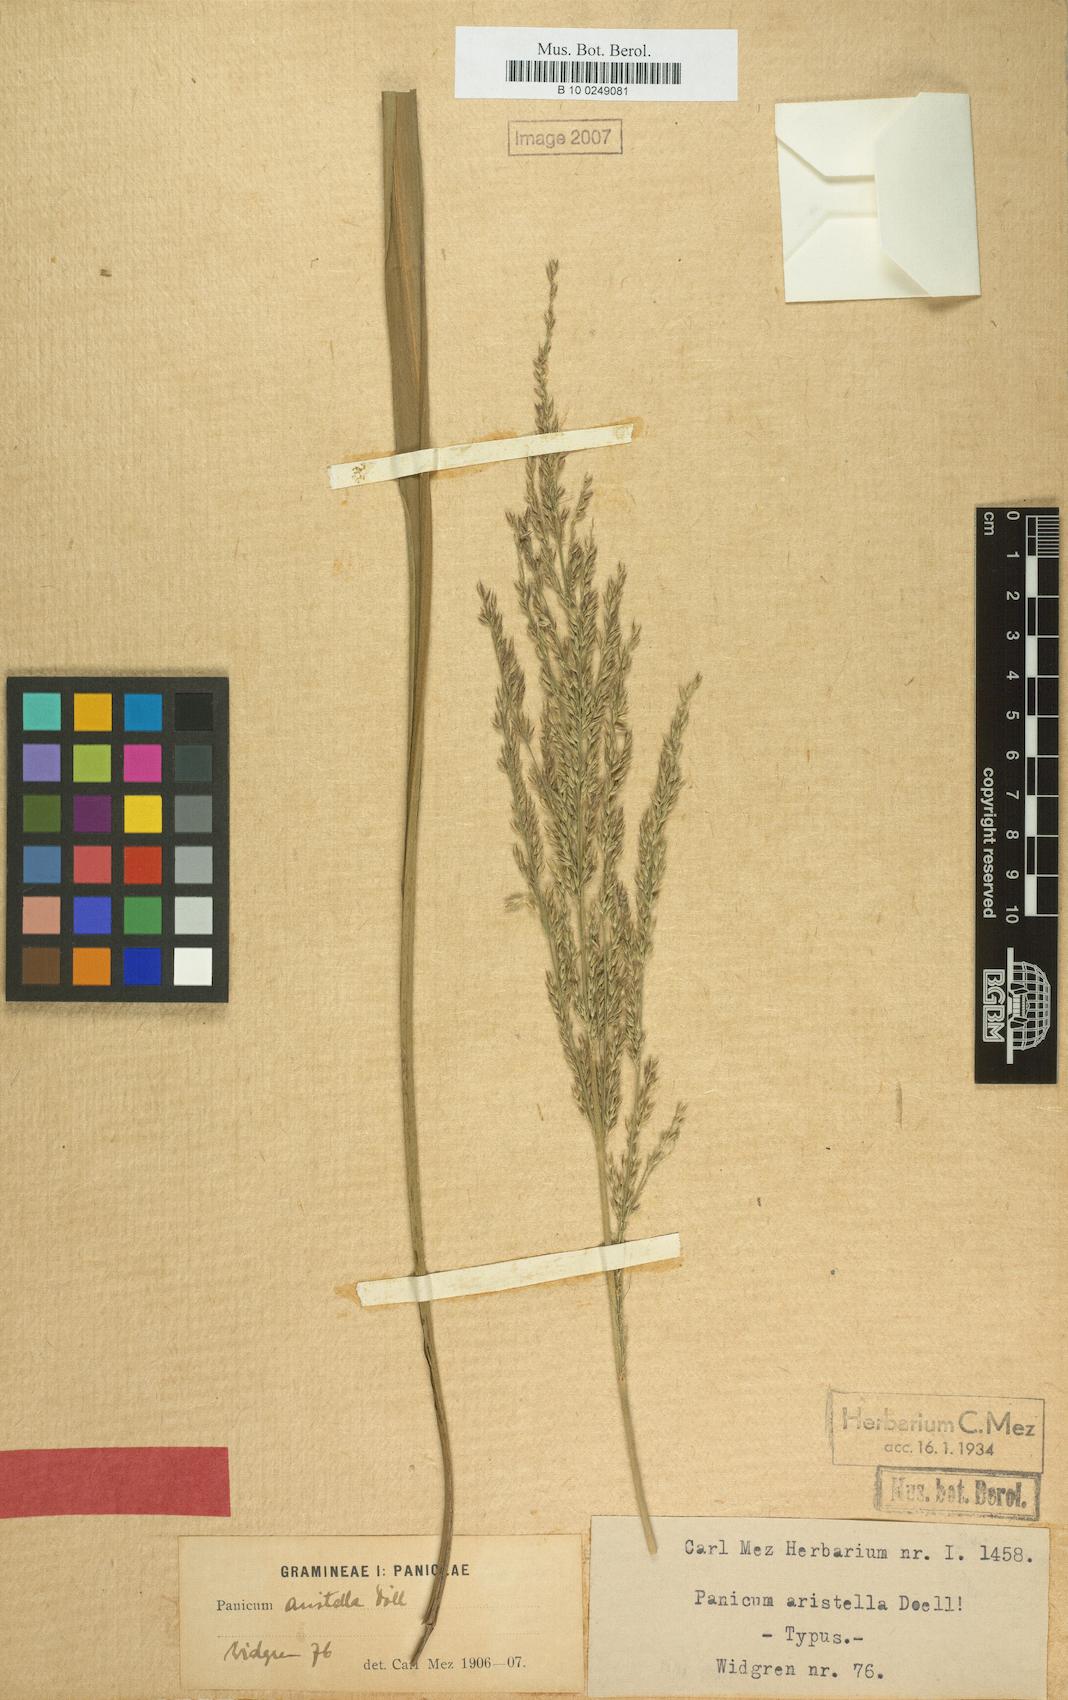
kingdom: Plantae
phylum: Tracheophyta
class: Liliopsida
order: Poales
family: Poaceae
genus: Canastra
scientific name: Canastra aristella
